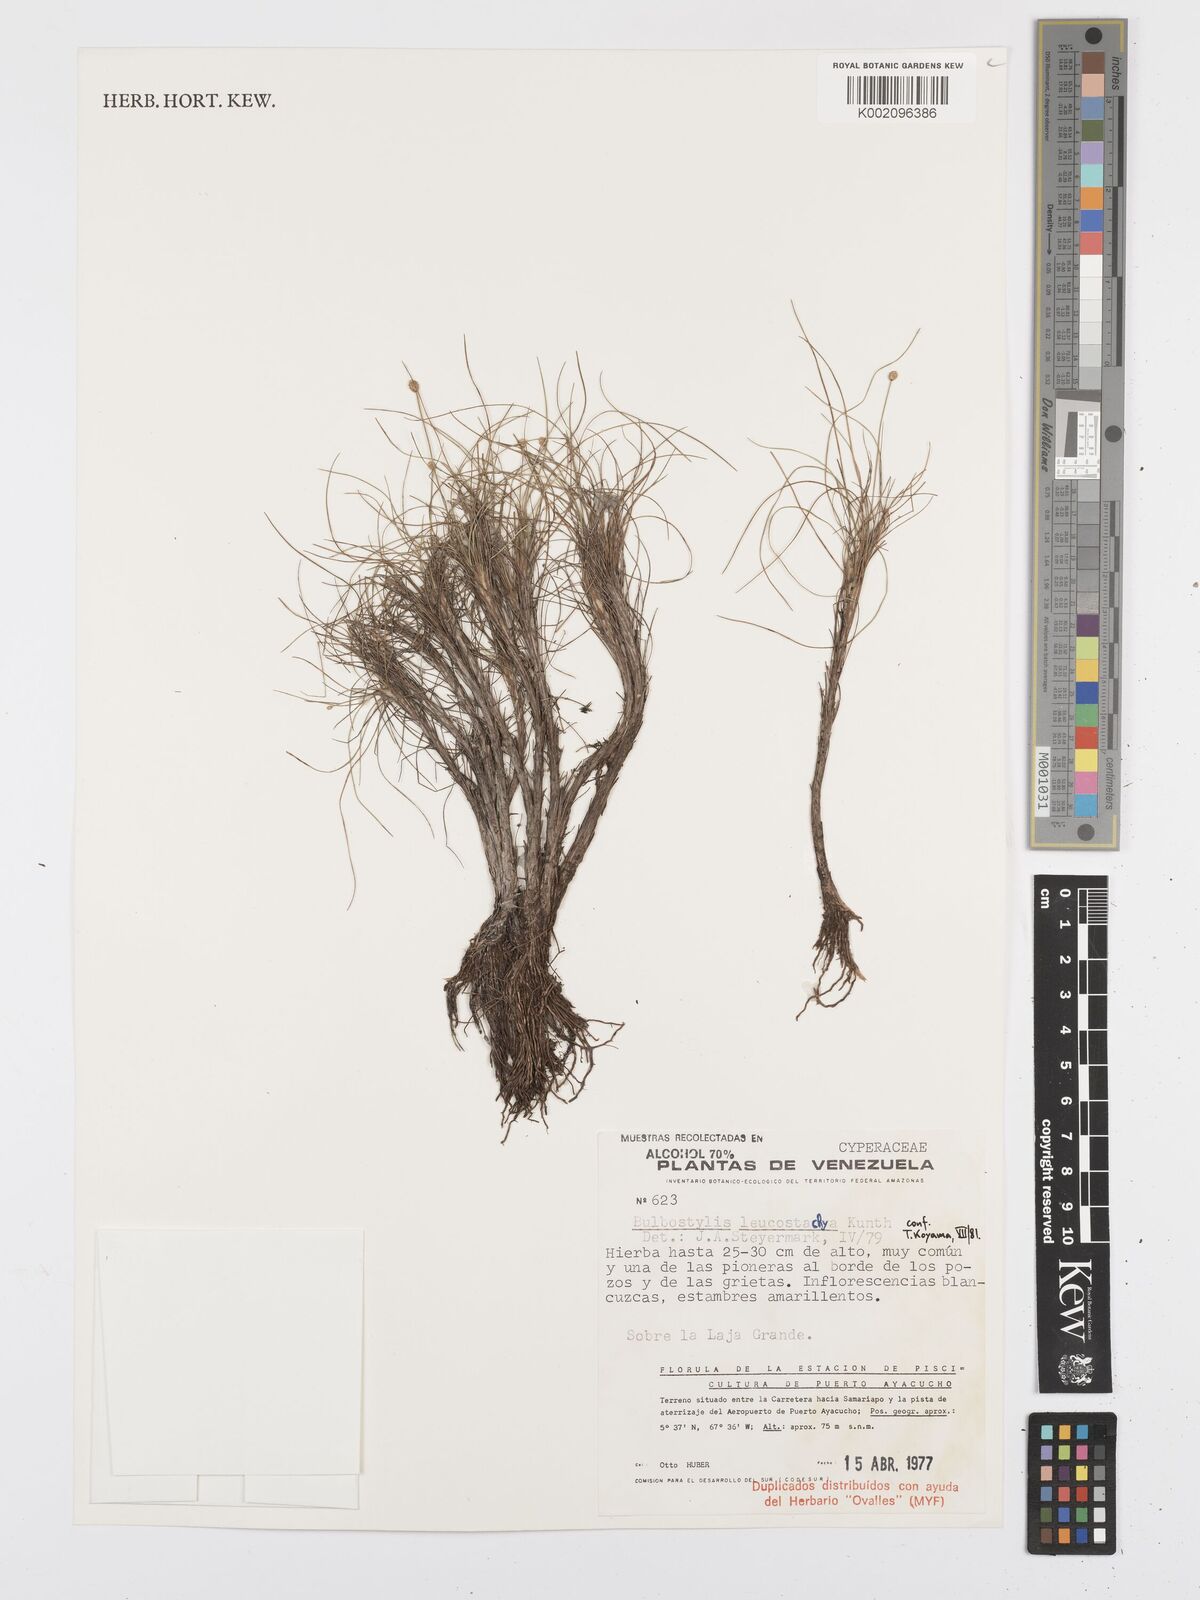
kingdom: Plantae
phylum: Tracheophyta
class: Liliopsida
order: Poales
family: Cyperaceae
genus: Bulbostylis
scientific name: Bulbostylis leucostachya
